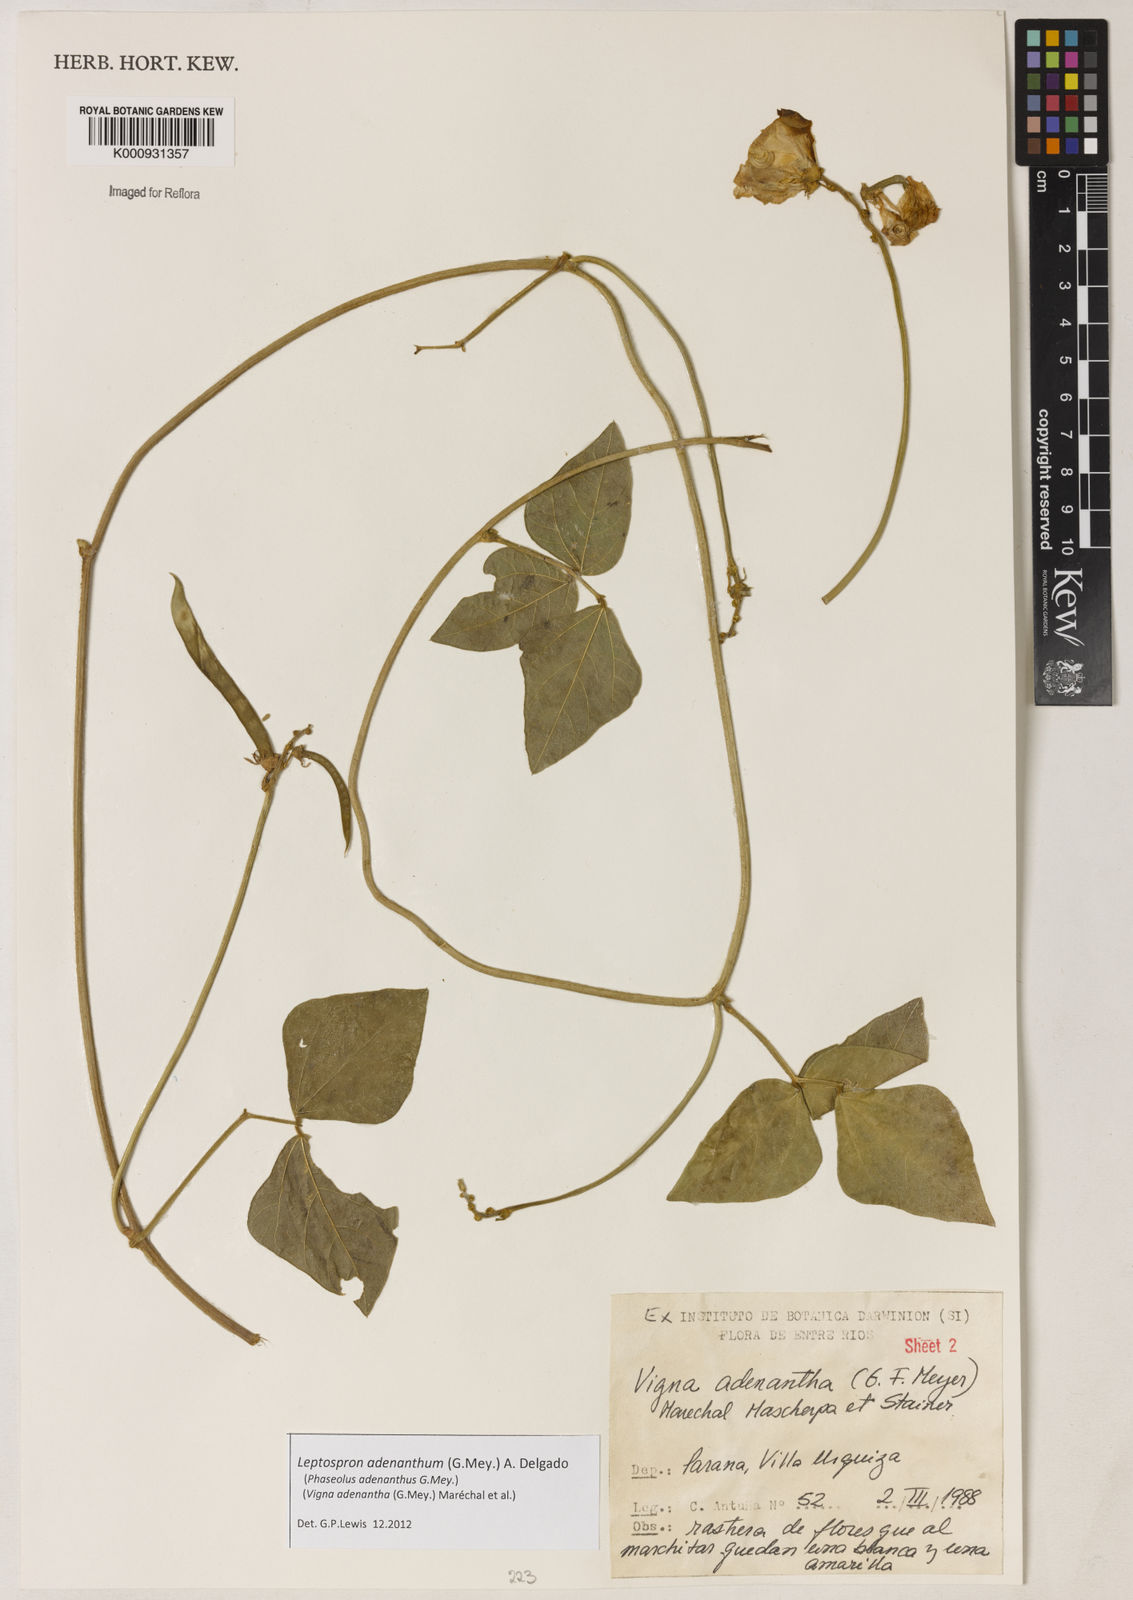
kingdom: Plantae
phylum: Tracheophyta
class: Magnoliopsida
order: Fabales
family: Fabaceae
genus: Leptospron
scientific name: Leptospron adenanthum
